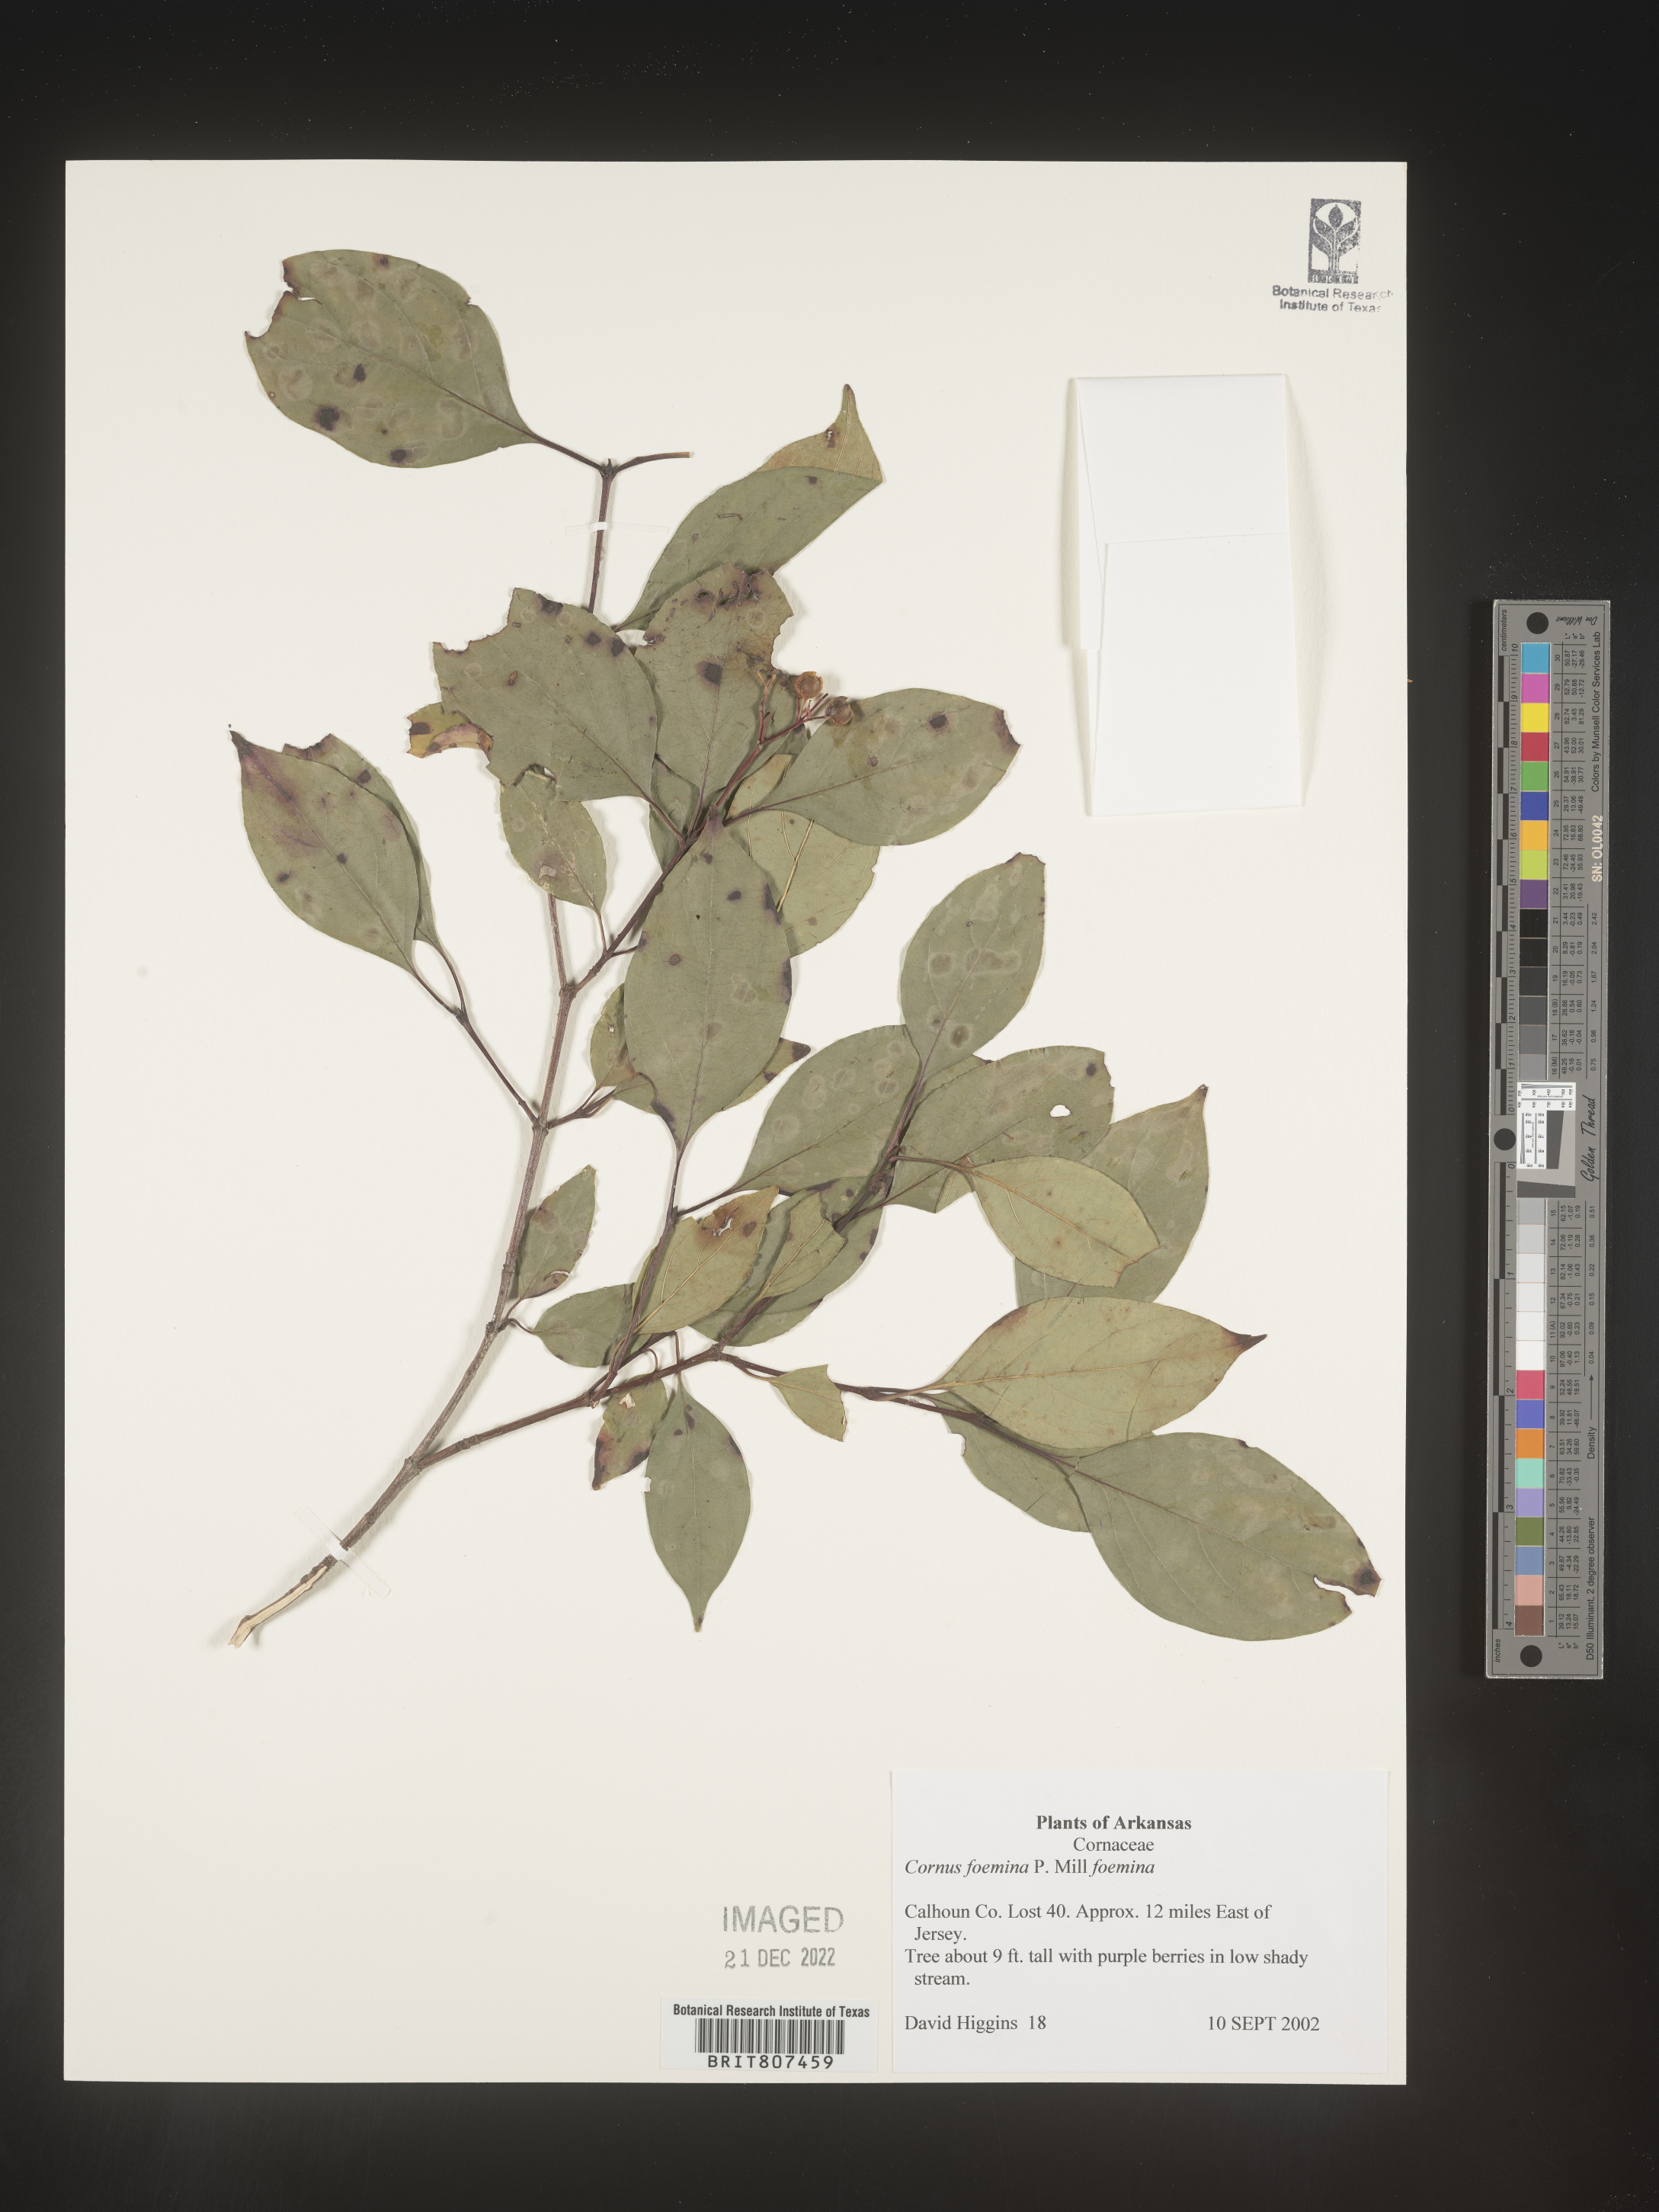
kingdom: Plantae
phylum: Tracheophyta
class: Magnoliopsida
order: Cornales
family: Cornaceae
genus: Cornus
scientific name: Cornus foemina
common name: Swamp dogwood
